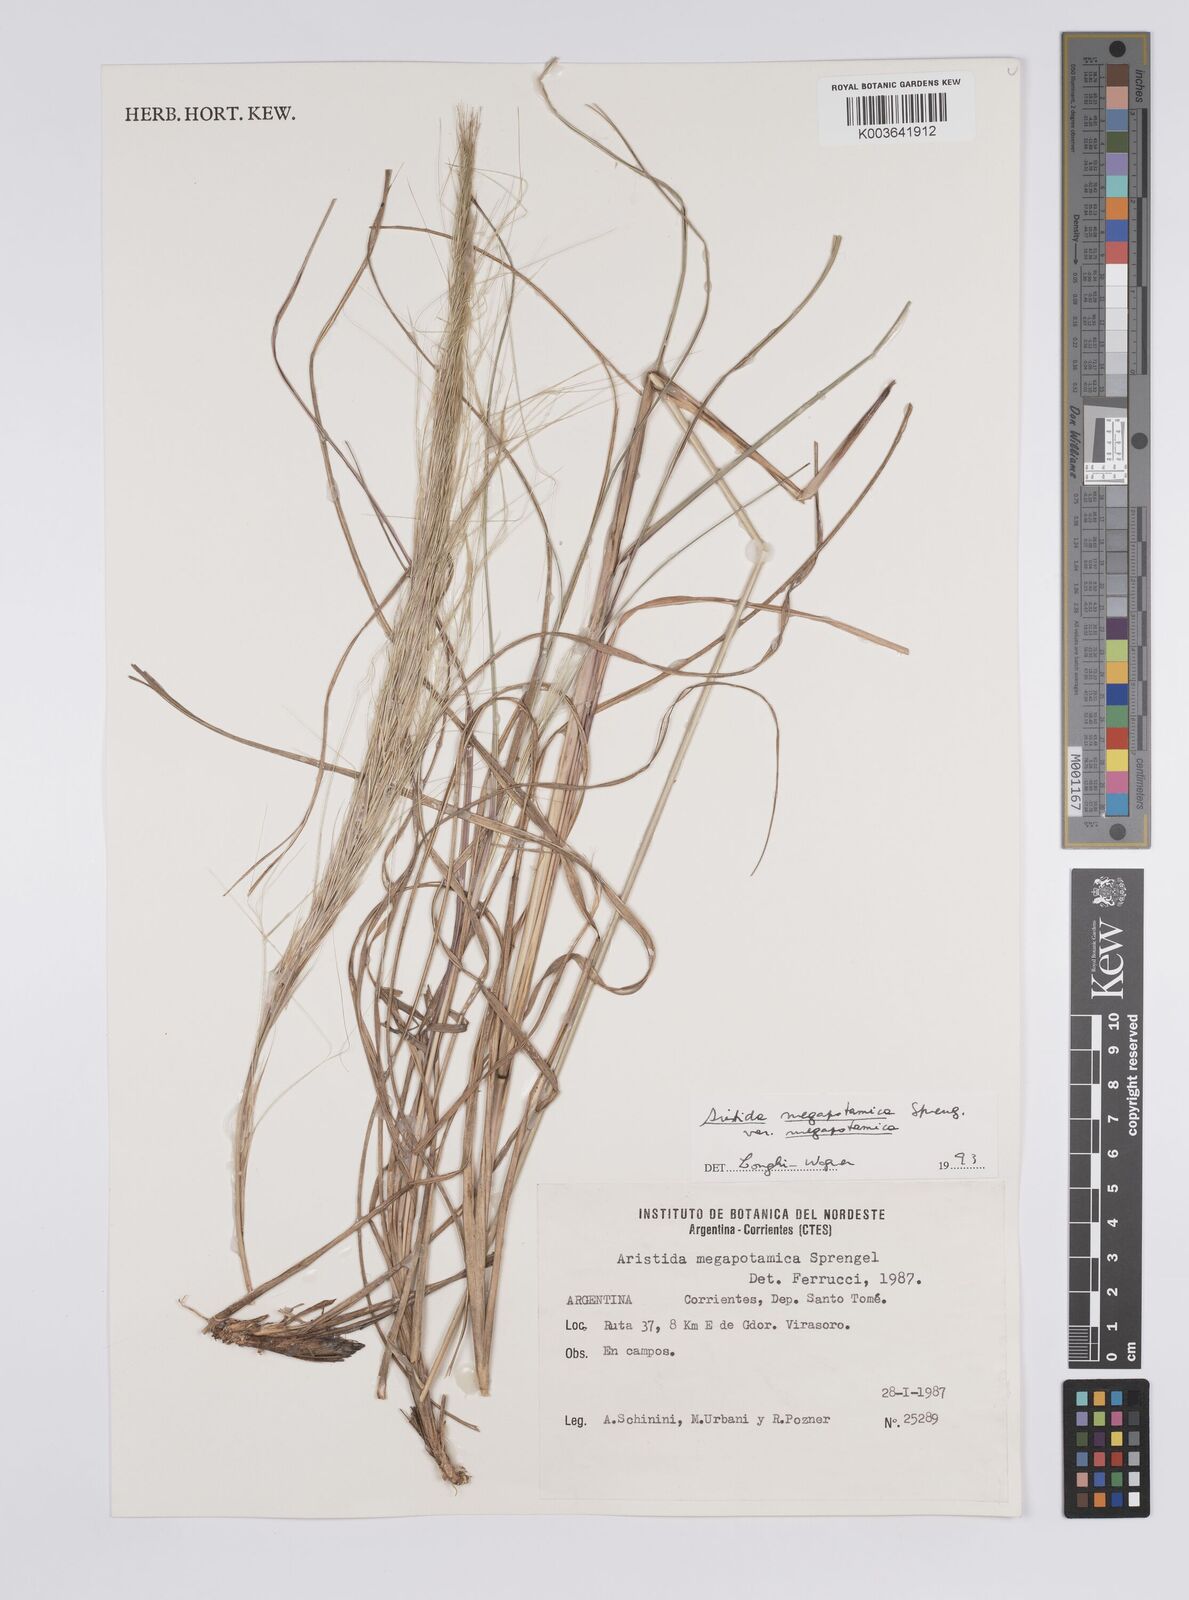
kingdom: Plantae
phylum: Tracheophyta
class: Liliopsida
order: Poales
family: Poaceae
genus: Aristida
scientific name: Aristida megapotamica
